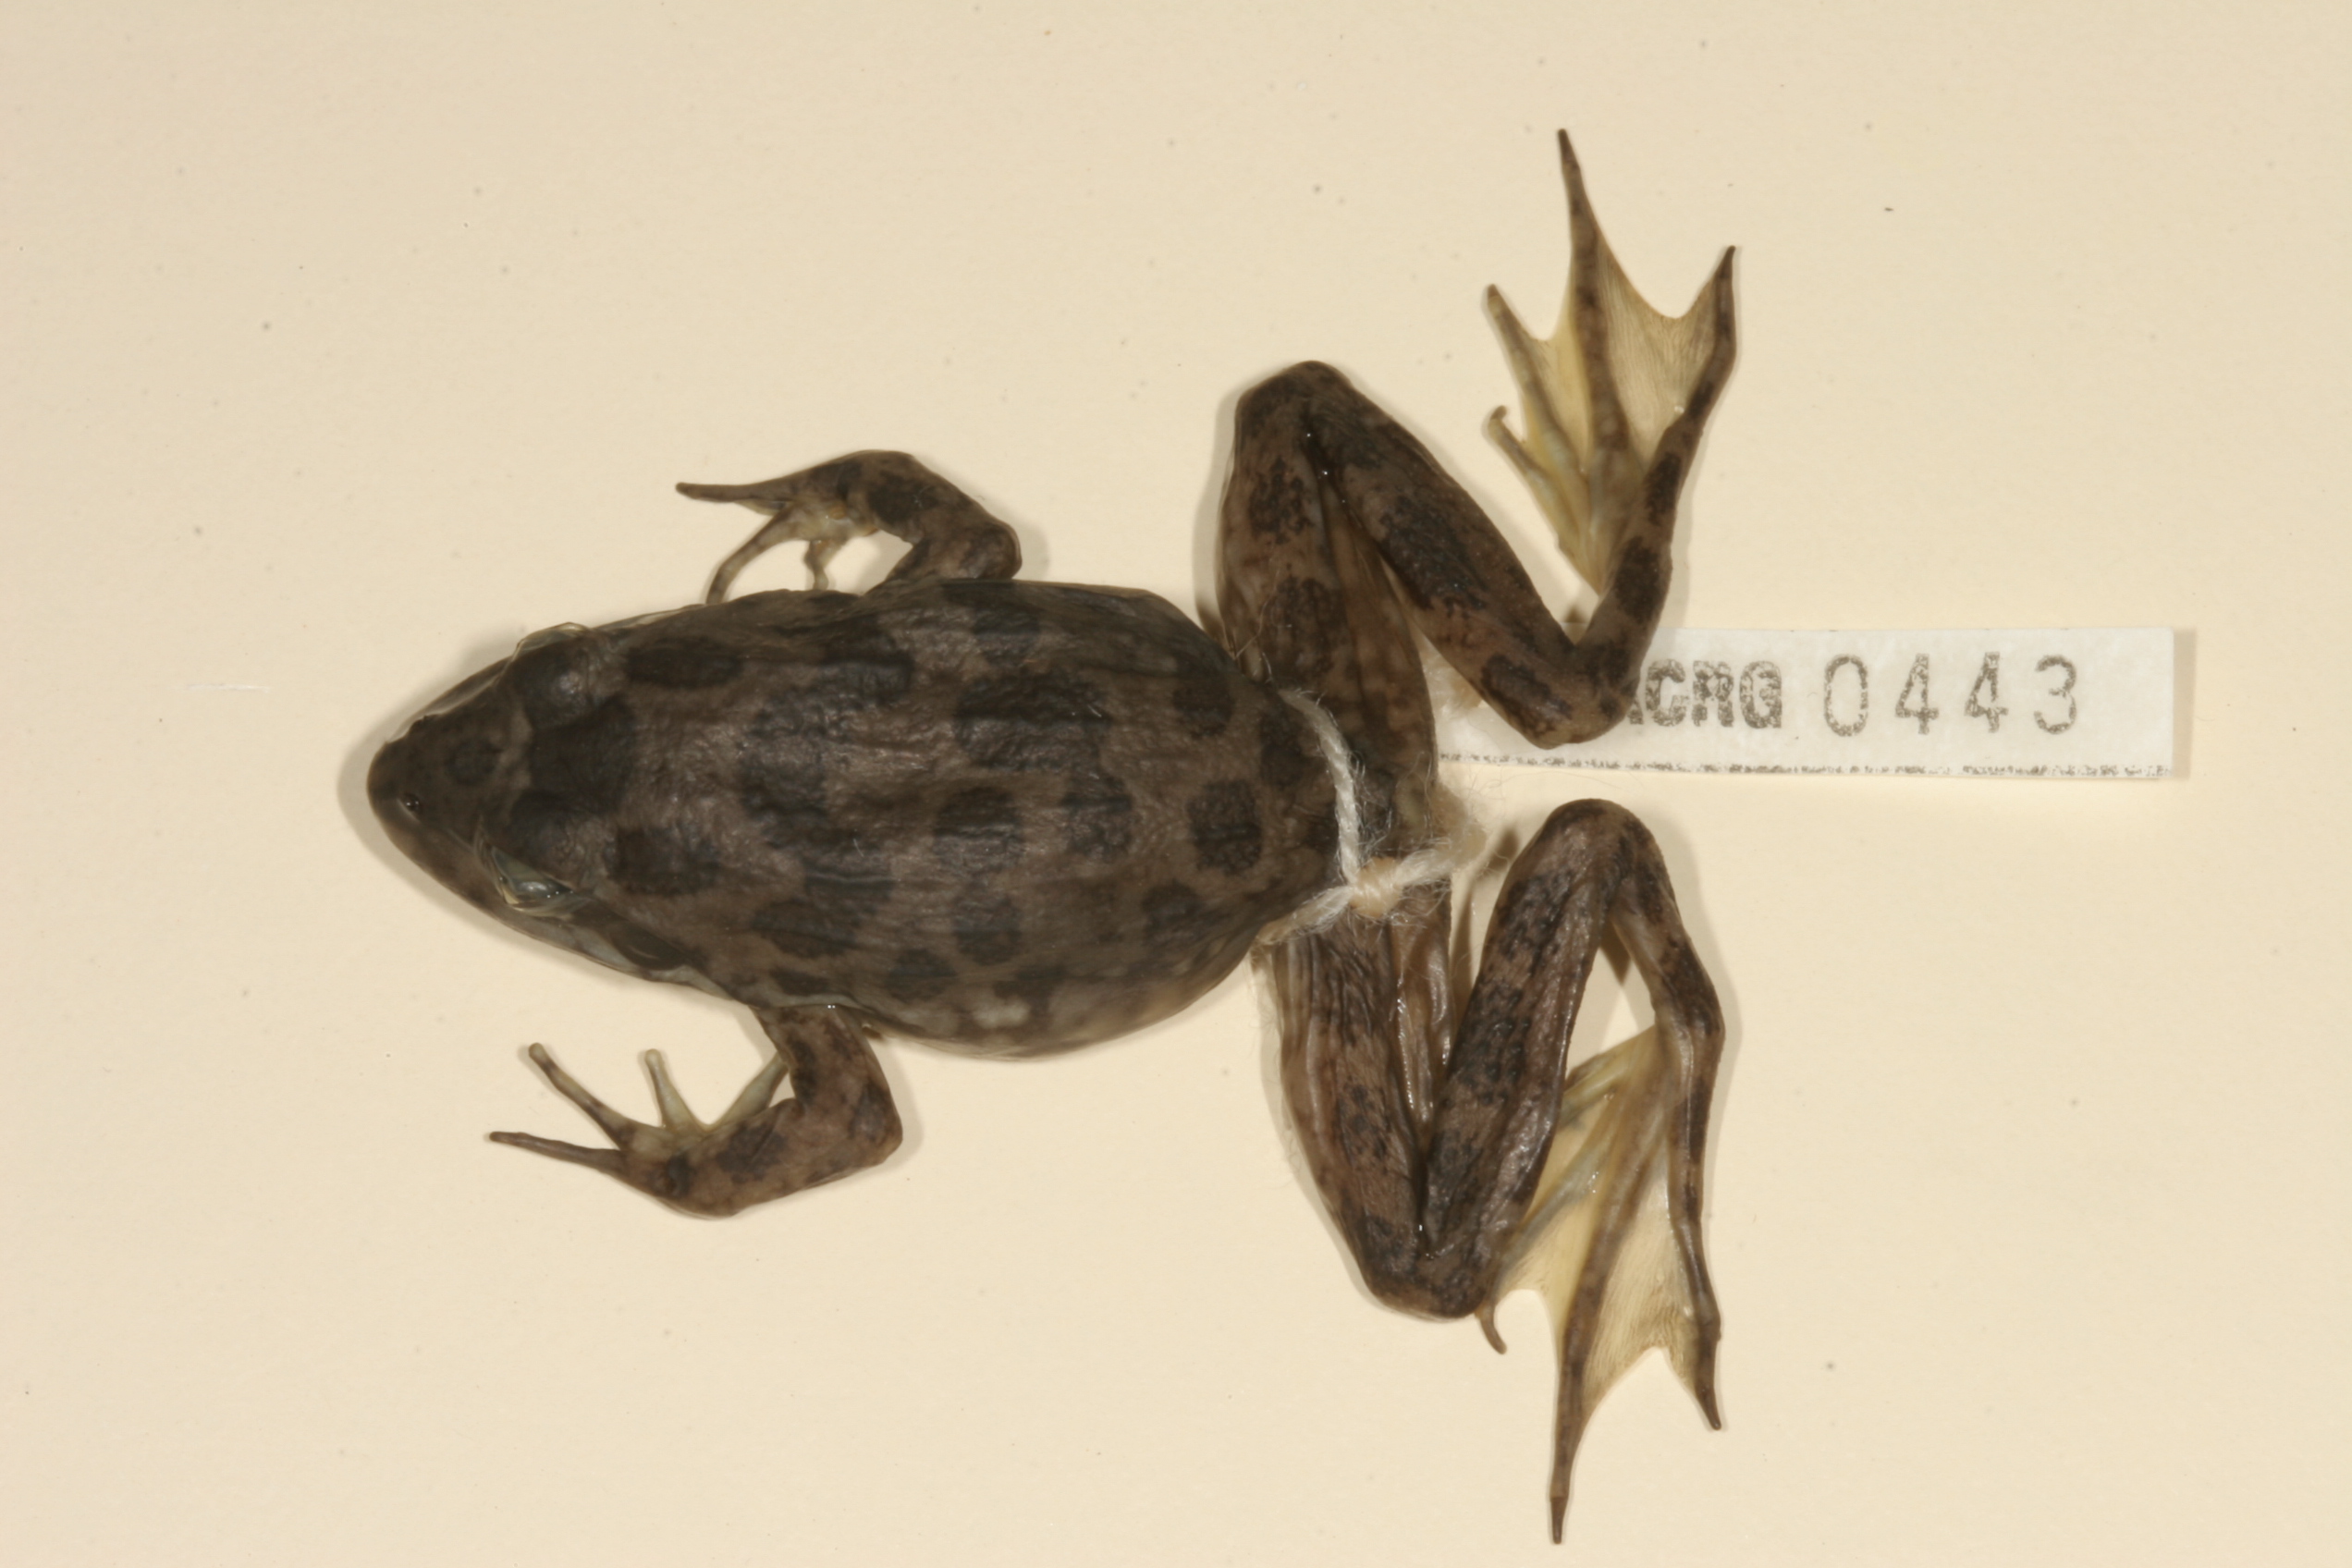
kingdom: Animalia
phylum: Chordata
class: Amphibia
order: Anura
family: Pyxicephalidae
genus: Amietia
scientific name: Amietia fuscigula
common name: Cape rana
